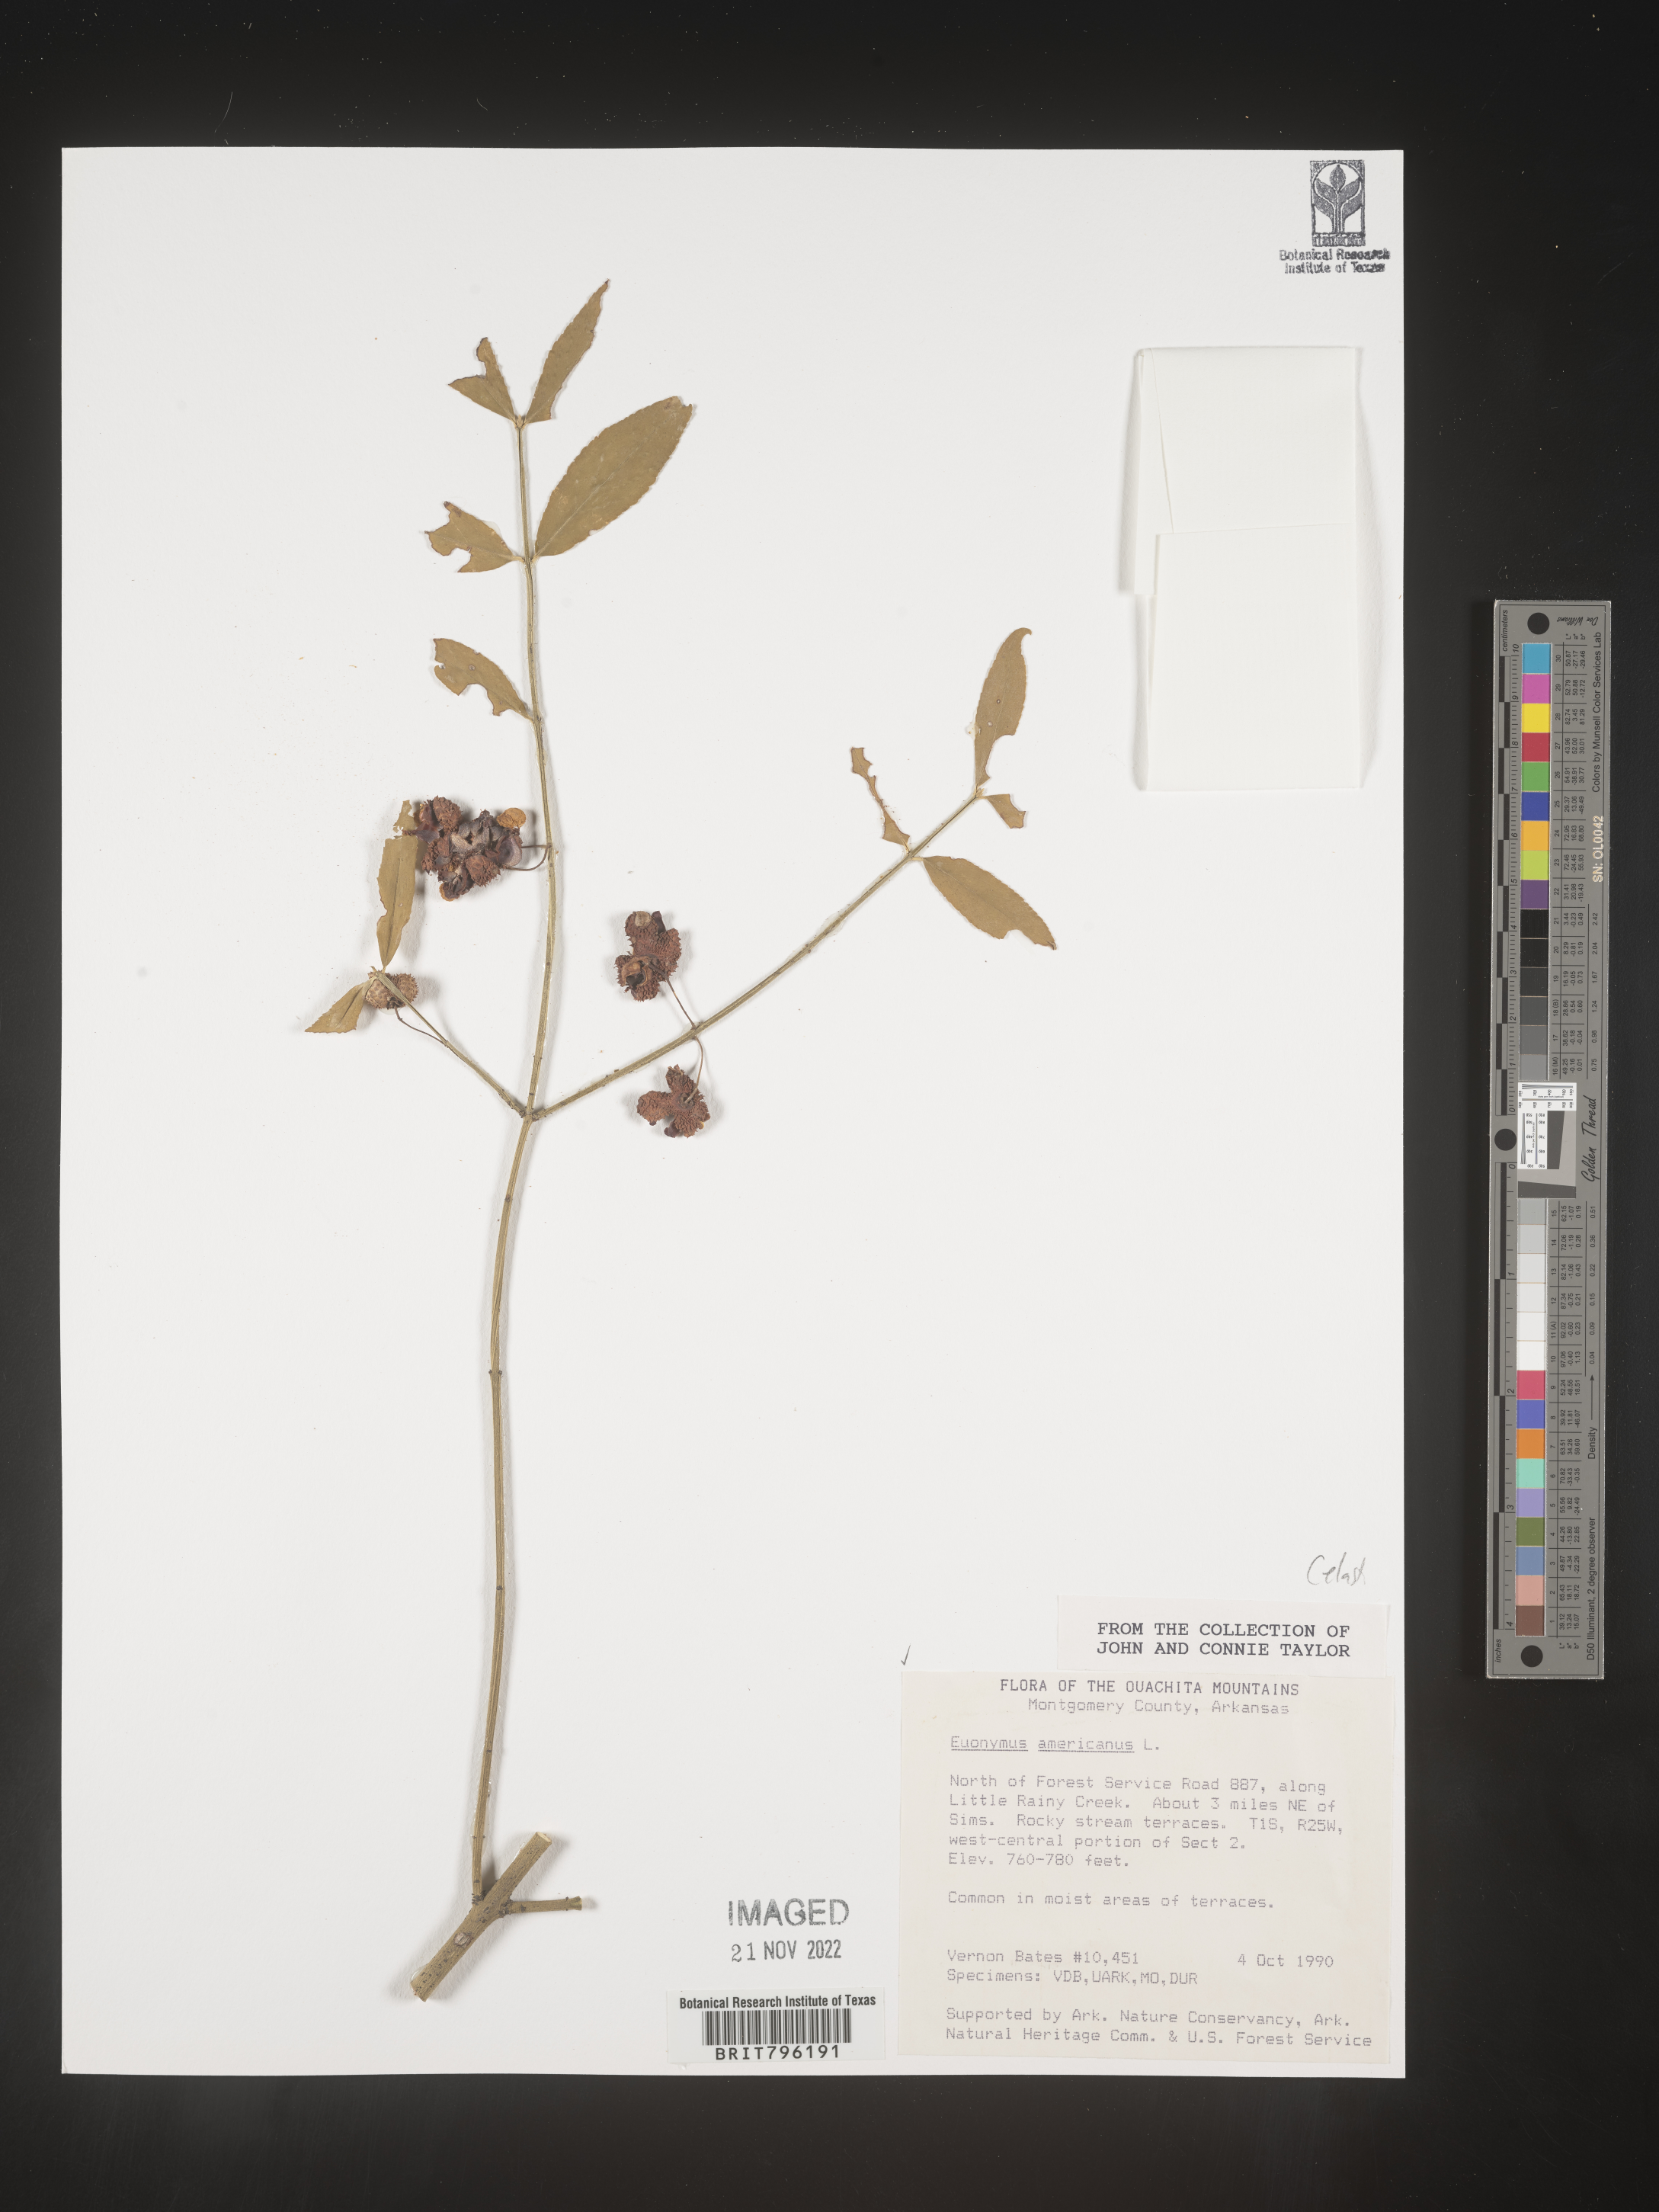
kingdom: Plantae
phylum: Tracheophyta
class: Magnoliopsida
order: Celastrales
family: Celastraceae
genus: Euonymus
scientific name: Euonymus americanus
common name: Bursting-heart
